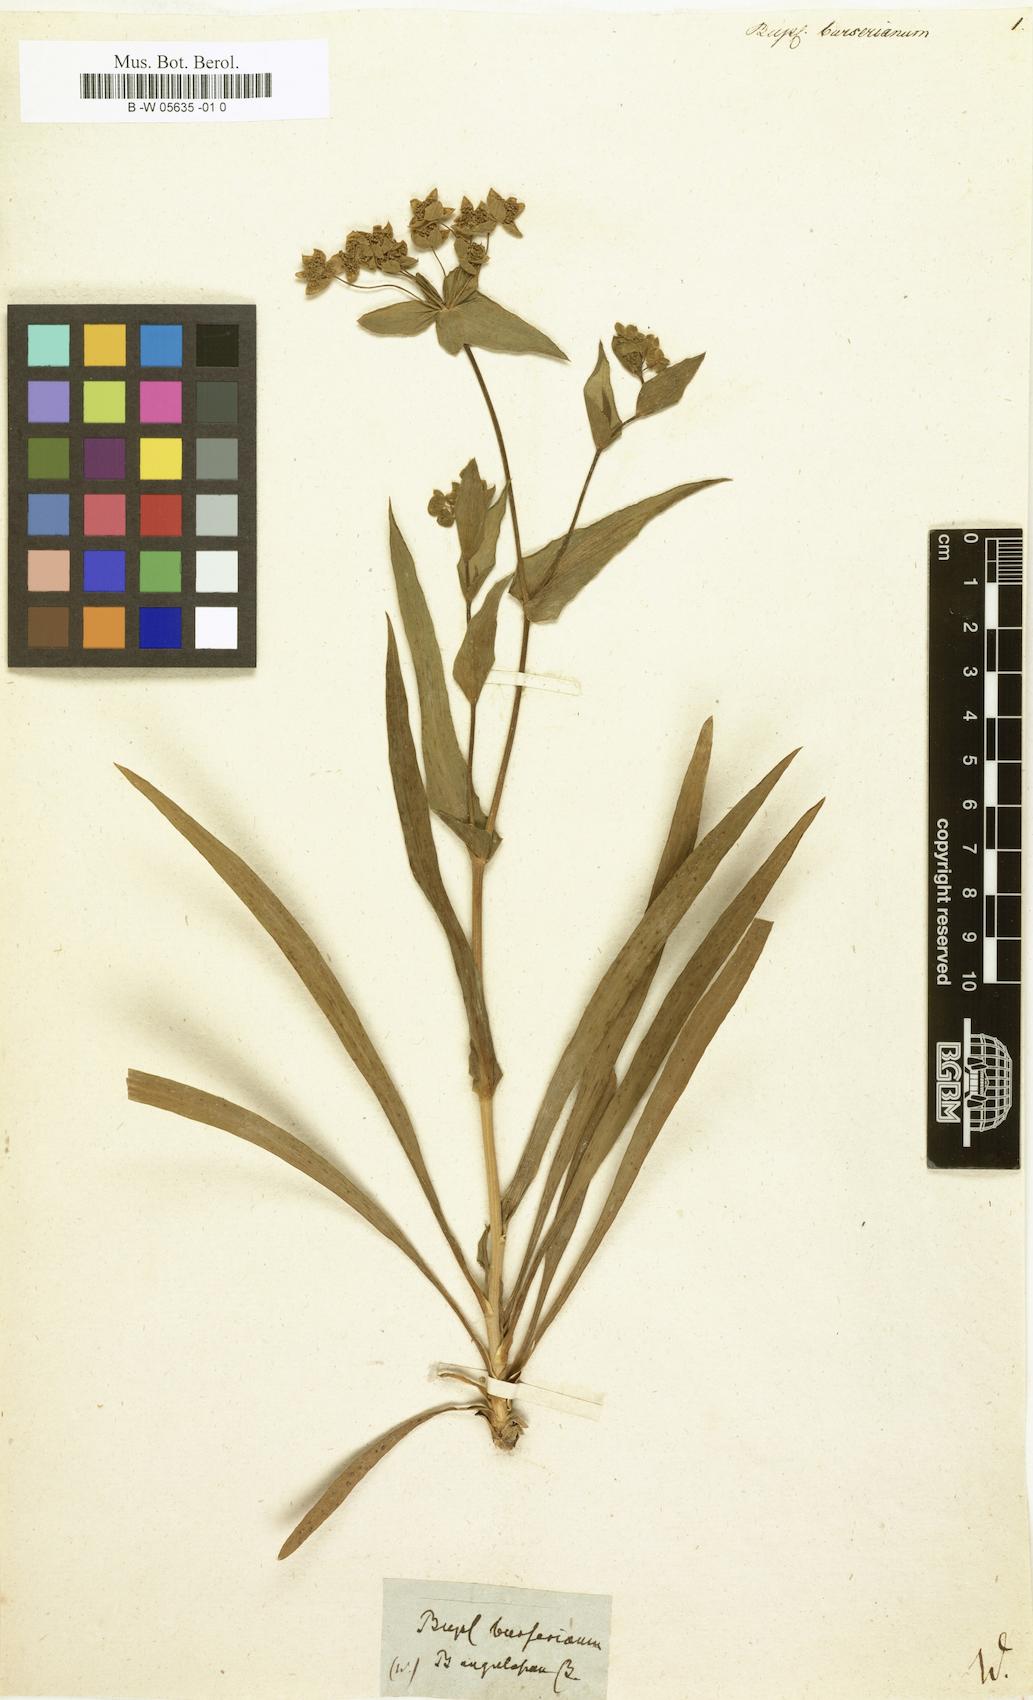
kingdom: Plantae
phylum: Tracheophyta
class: Magnoliopsida
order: Apiales
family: Apiaceae
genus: Bupleurum
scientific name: Bupleurum ranunculoides
